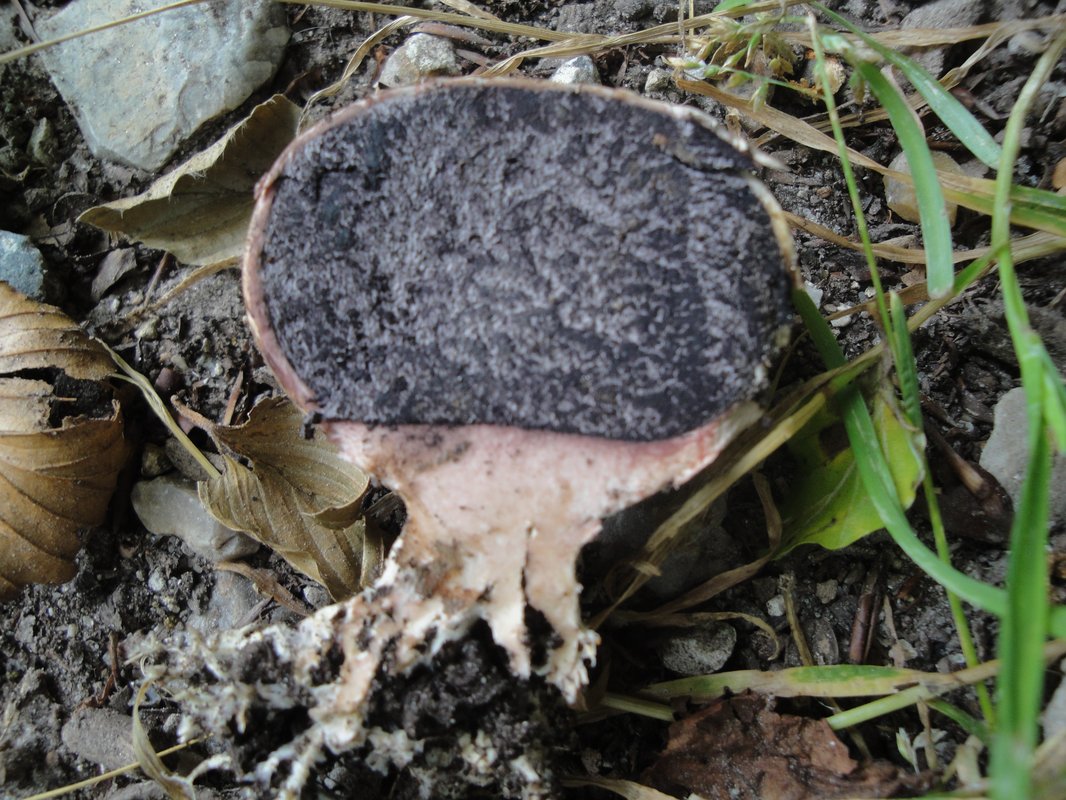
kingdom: Fungi
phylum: Basidiomycota
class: Agaricomycetes
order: Boletales
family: Sclerodermataceae
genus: Scleroderma
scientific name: Scleroderma verrucosum
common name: stilket bruskbold
